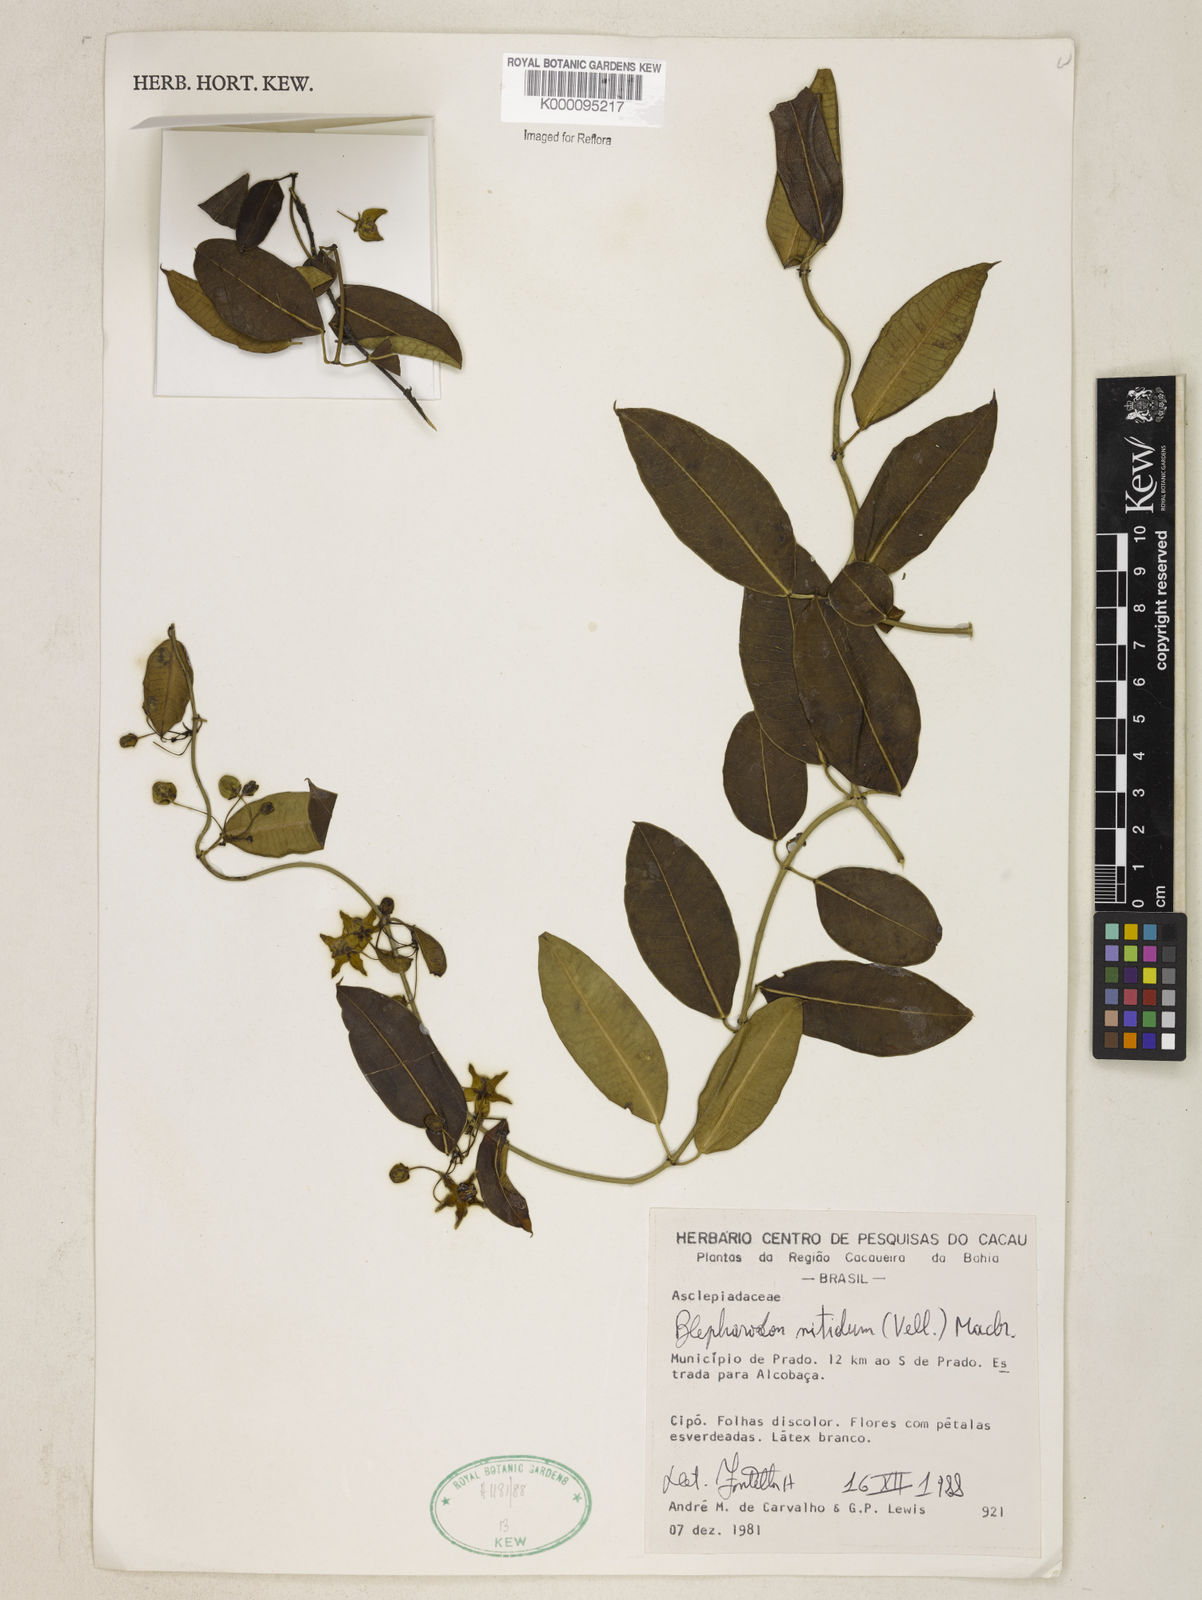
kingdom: Plantae
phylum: Tracheophyta
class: Magnoliopsida
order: Gentianales
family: Apocynaceae
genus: Blepharodon
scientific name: Blepharodon pictum
